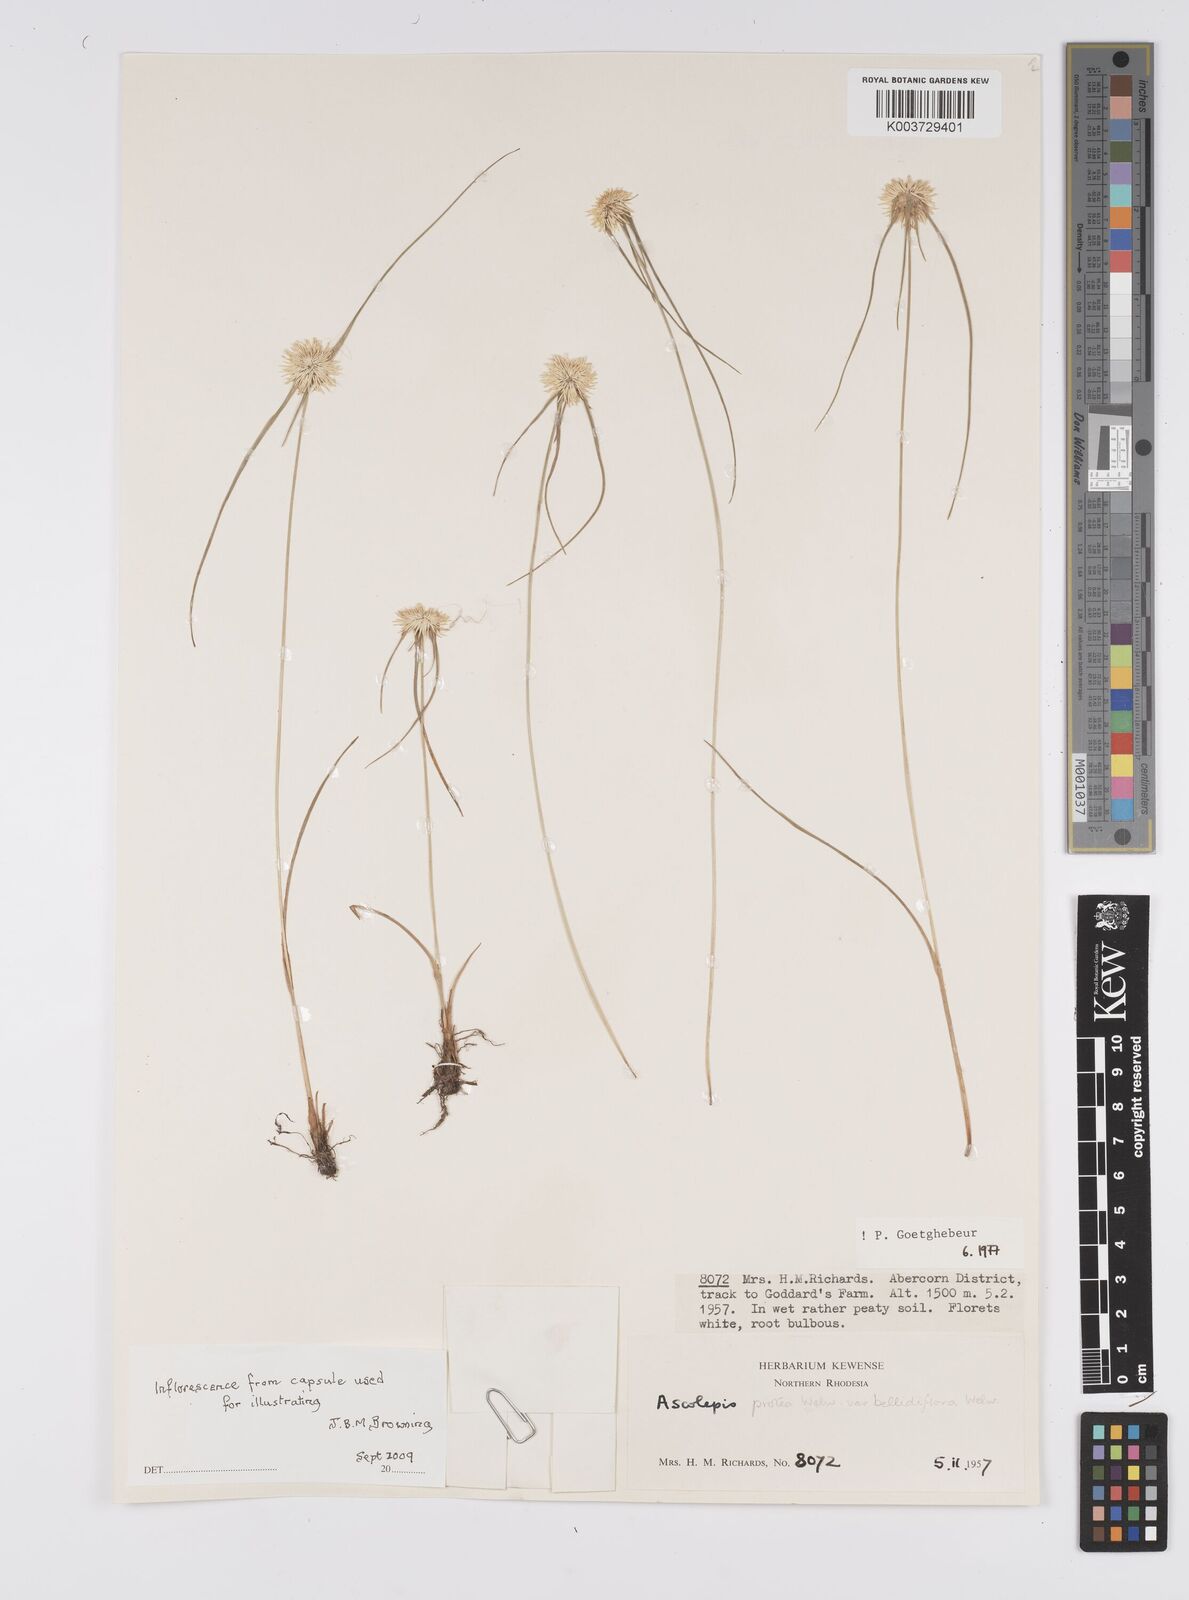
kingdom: Plantae
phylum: Tracheophyta
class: Liliopsida
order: Poales
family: Cyperaceae
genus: Cyperus
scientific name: Cyperus proteus
